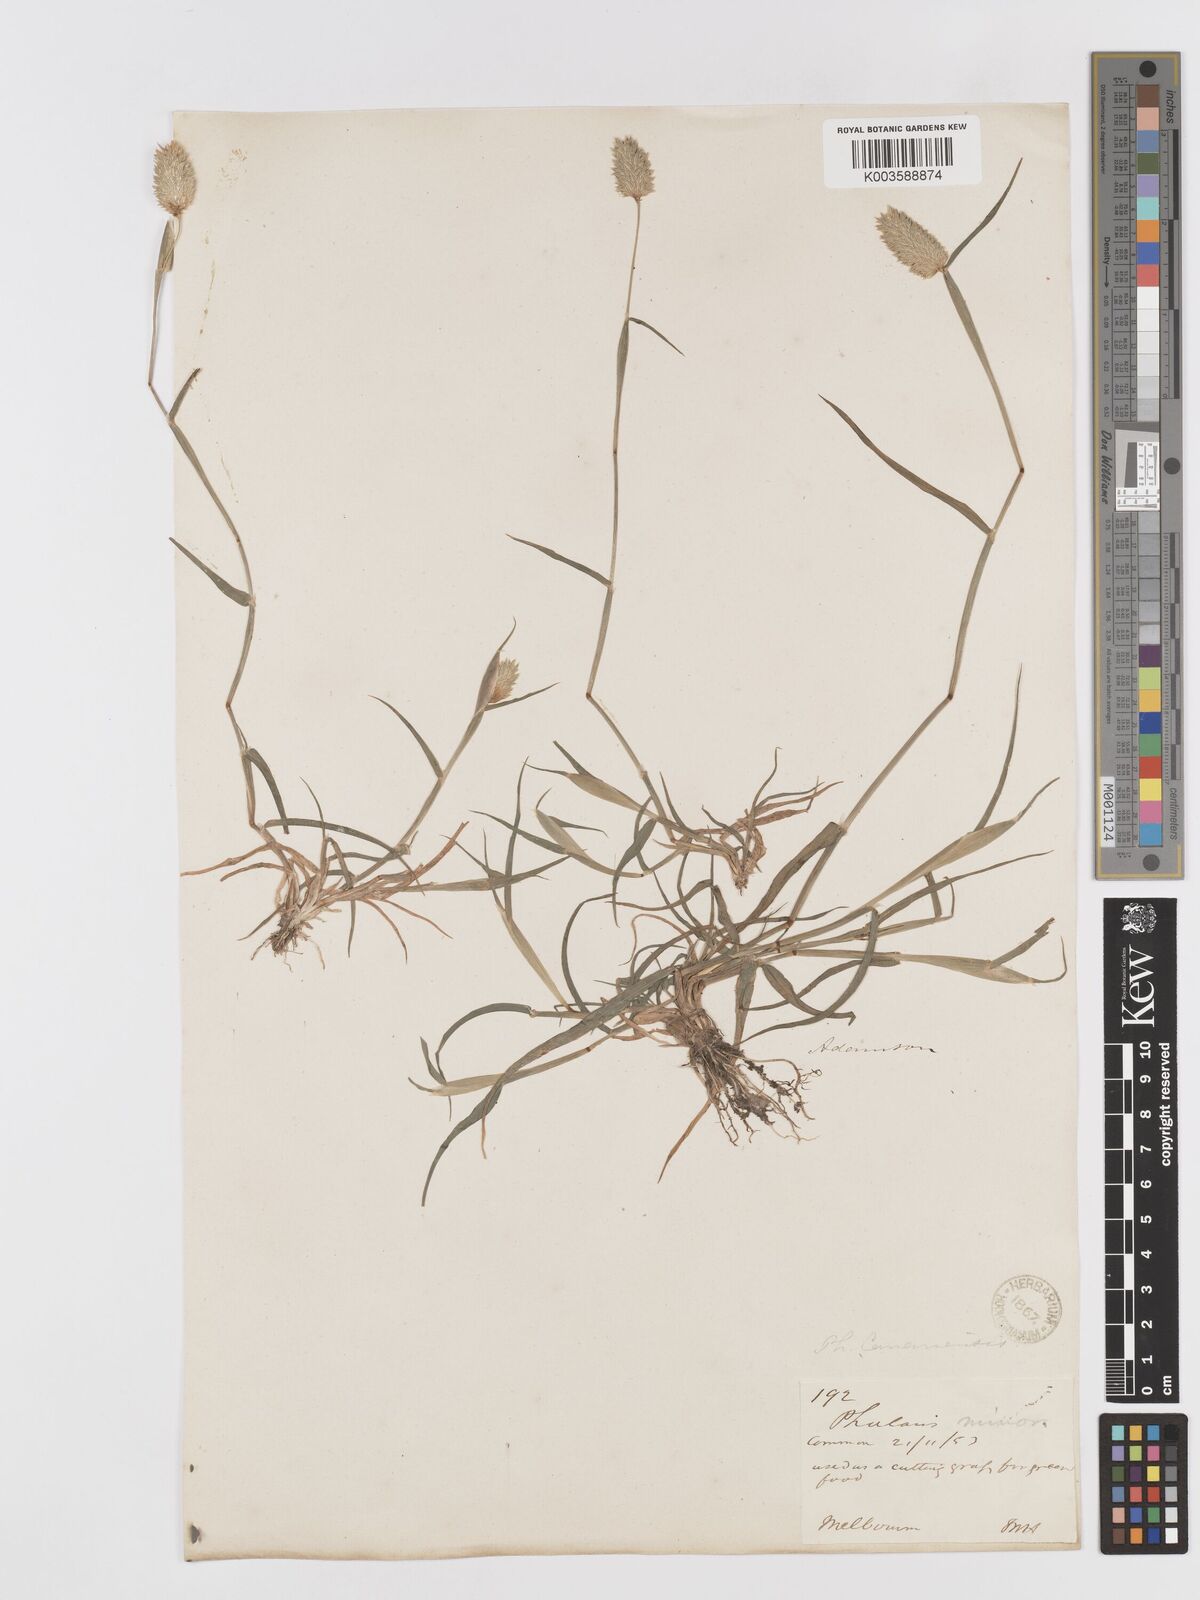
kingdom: Plantae
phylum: Tracheophyta
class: Liliopsida
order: Poales
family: Poaceae
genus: Phalaris
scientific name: Phalaris minor
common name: Littleseed canarygrass
